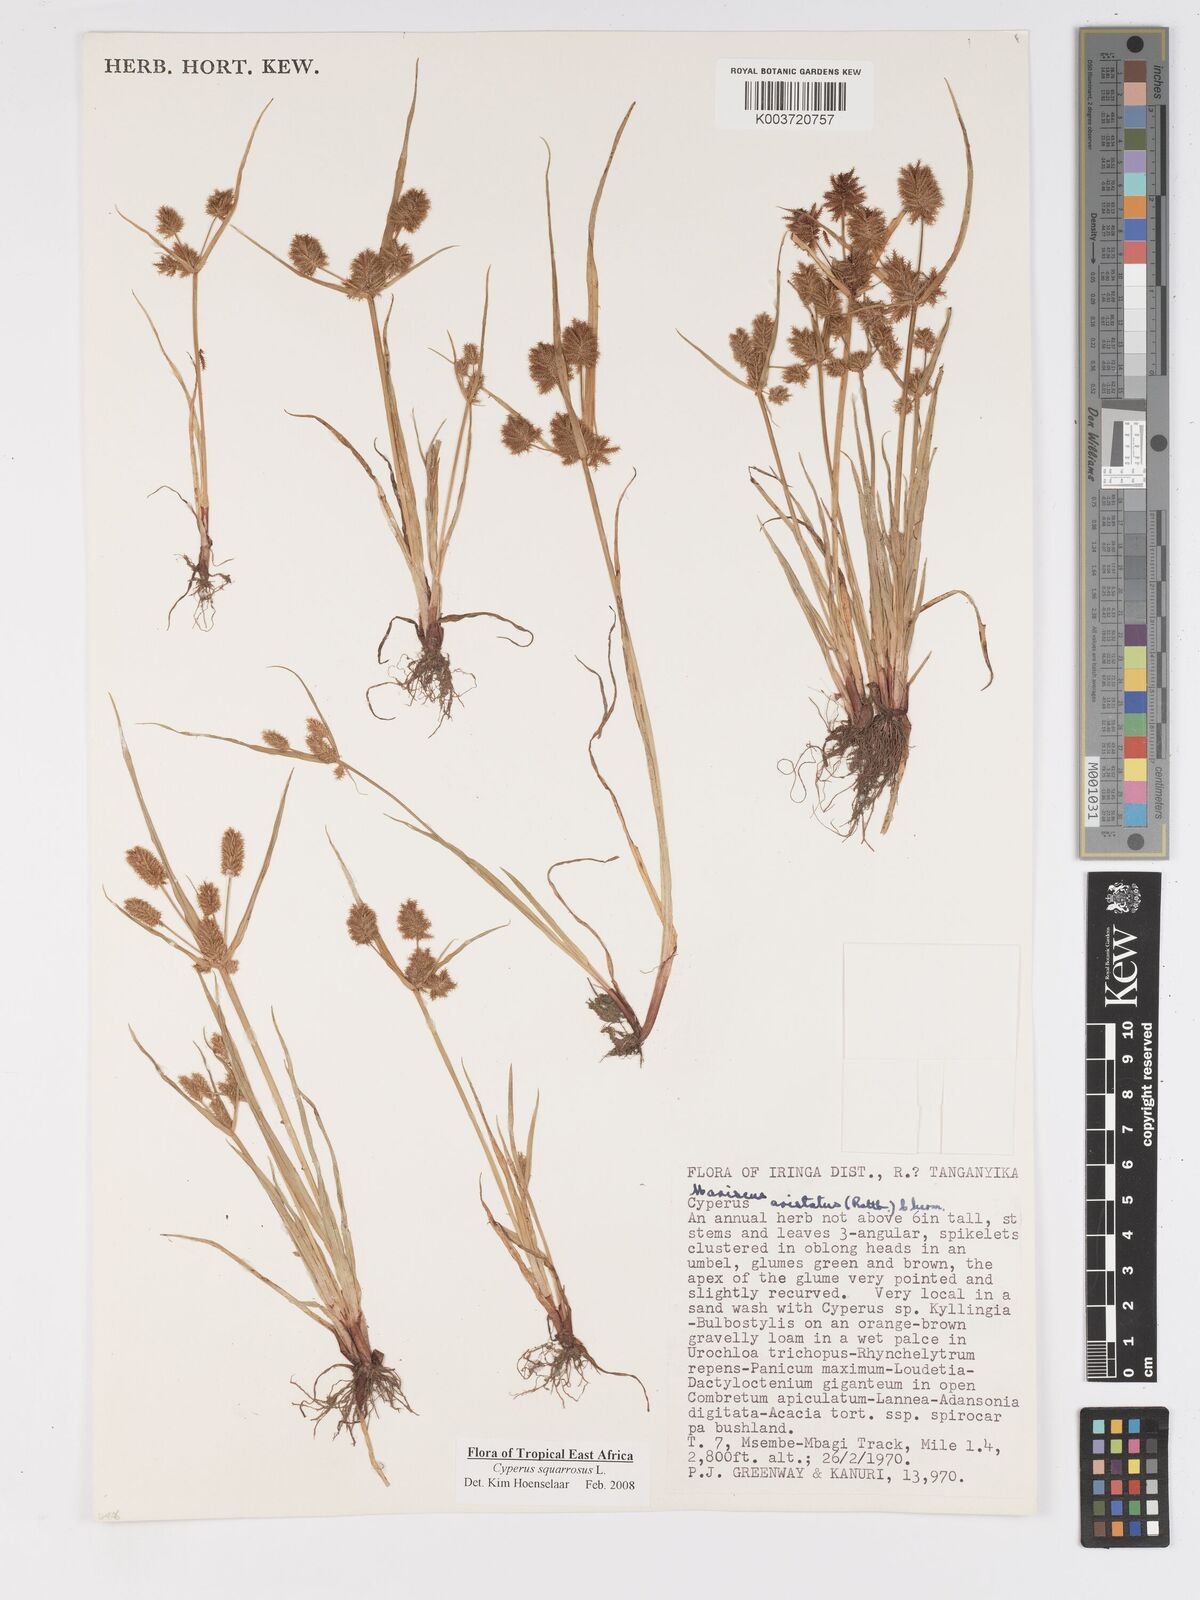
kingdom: Plantae
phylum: Tracheophyta
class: Liliopsida
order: Poales
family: Cyperaceae
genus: Cyperus
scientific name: Cyperus squarrosus
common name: Awned cyperus
